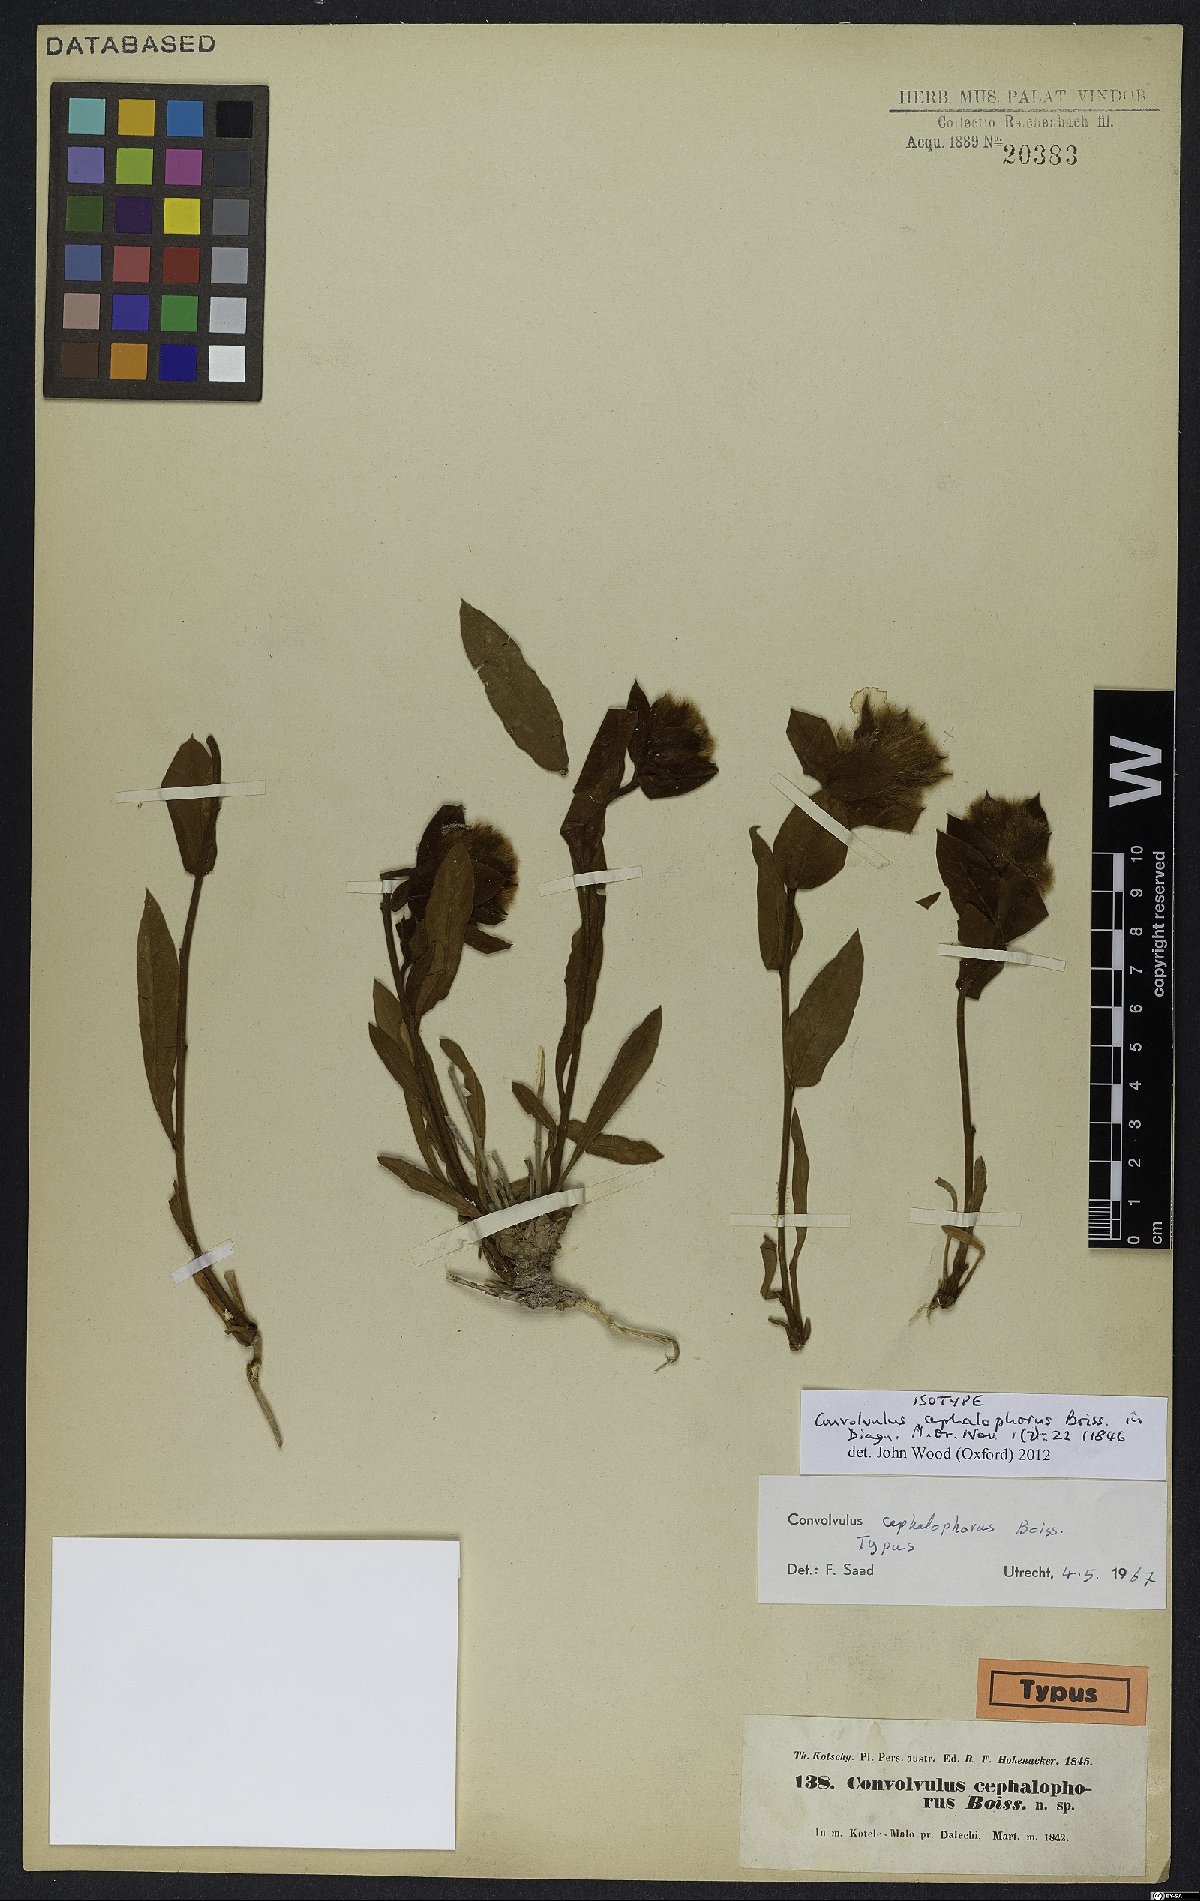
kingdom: Plantae
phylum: Tracheophyta
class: Magnoliopsida
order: Solanales
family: Convolvulaceae
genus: Convolvulus
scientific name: Convolvulus cephalophorus
